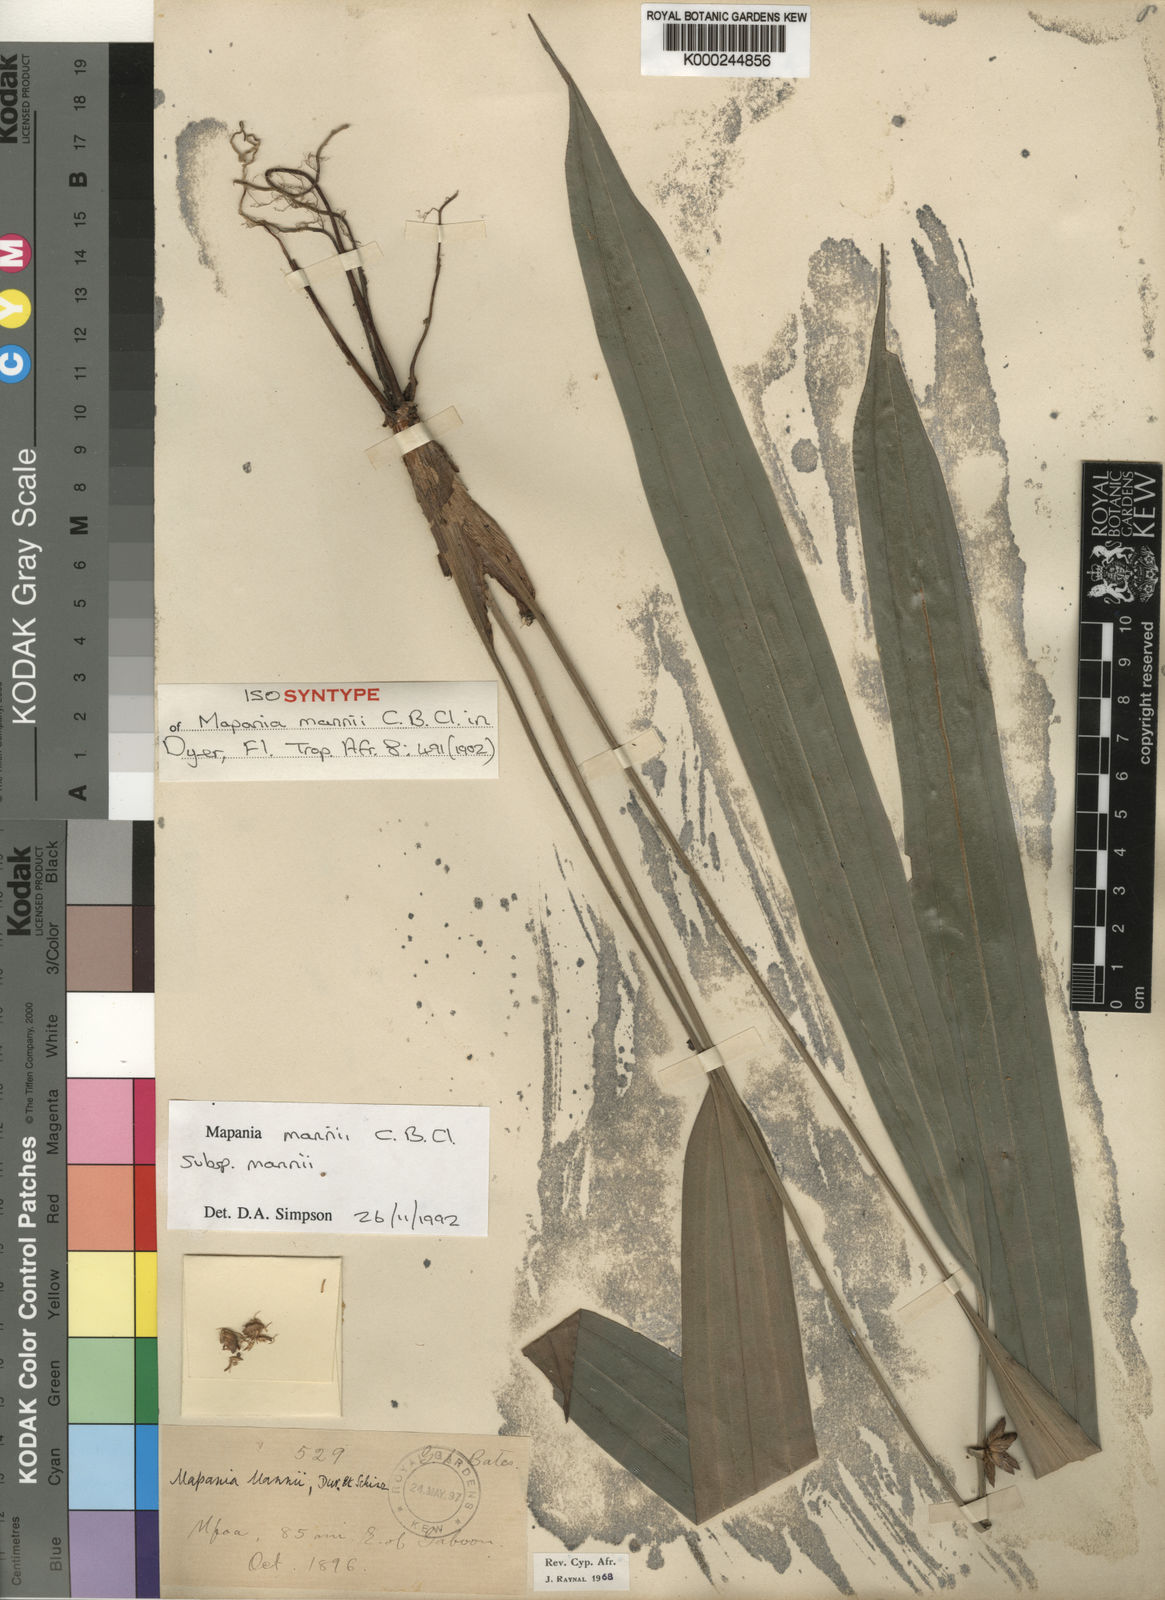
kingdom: Plantae
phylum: Tracheophyta
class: Liliopsida
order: Poales
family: Cyperaceae
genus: Mapania
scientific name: Mapania mannii
